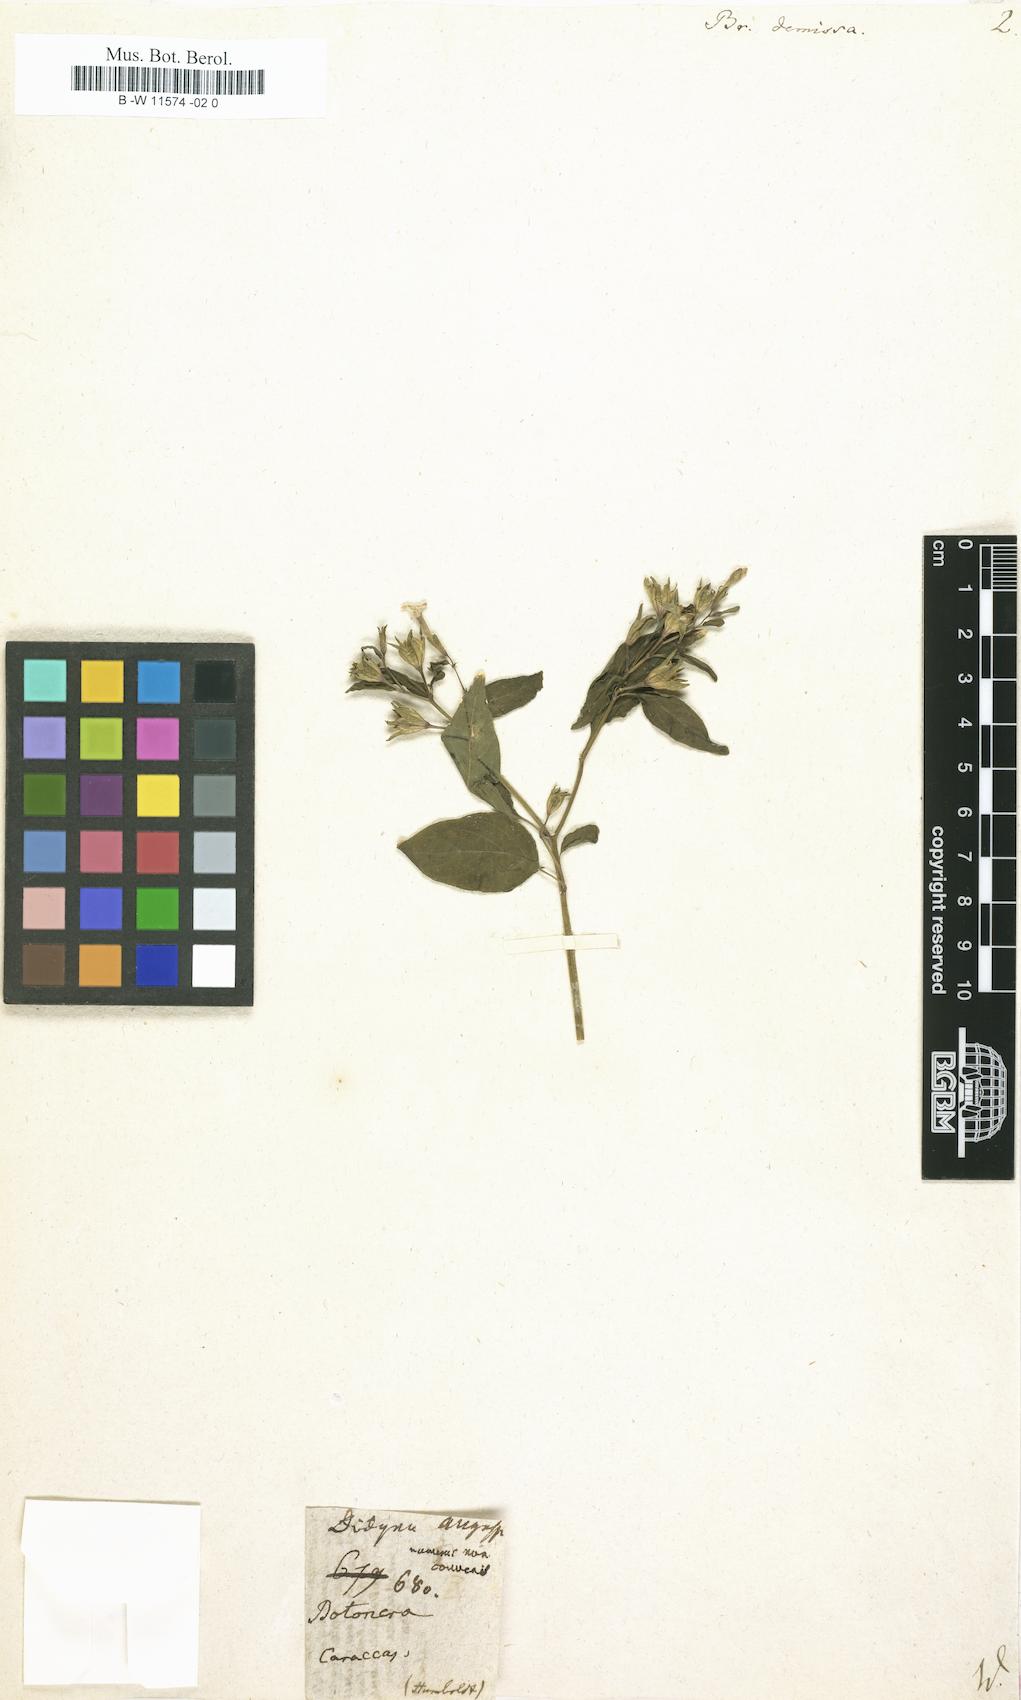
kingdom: Plantae
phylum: Tracheophyta
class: Magnoliopsida
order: Solanales
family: Solanaceae
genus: Browallia
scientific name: Browallia americana
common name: Jamaican forget-me-not
